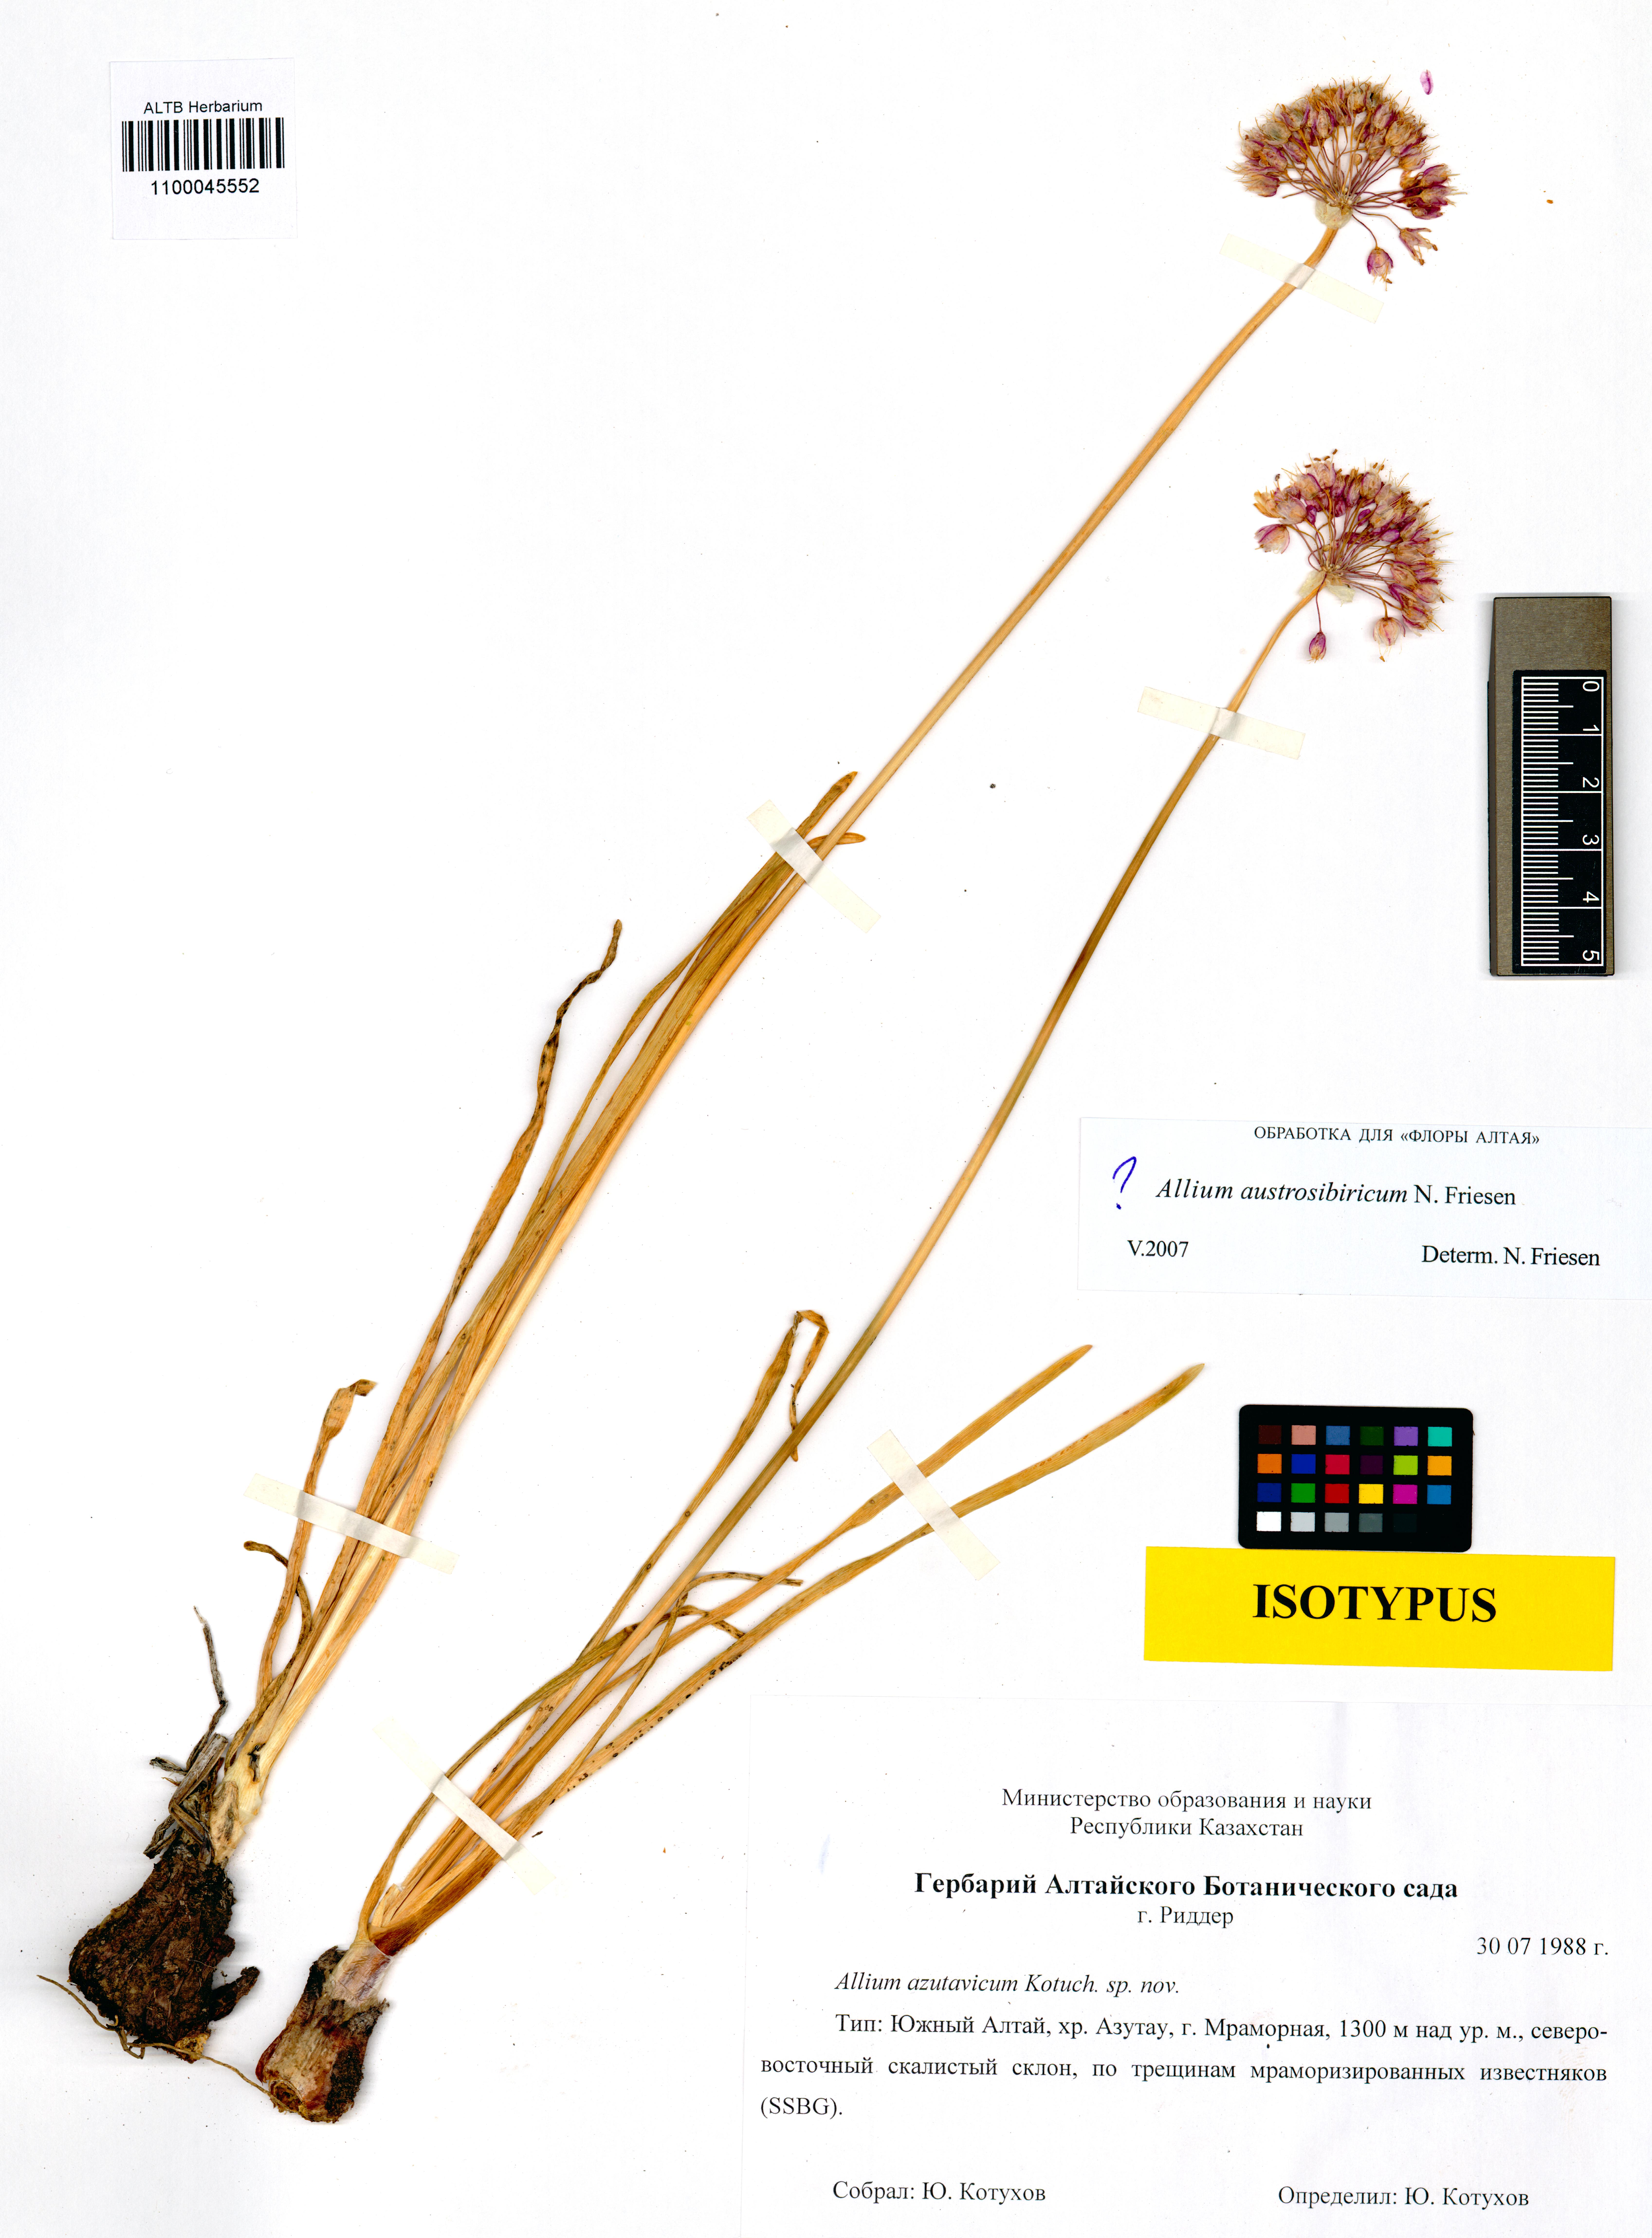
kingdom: Plantae
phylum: Tracheophyta
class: Liliopsida
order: Asparagales
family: Amaryllidaceae
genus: Allium
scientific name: Allium austrosibiricum
